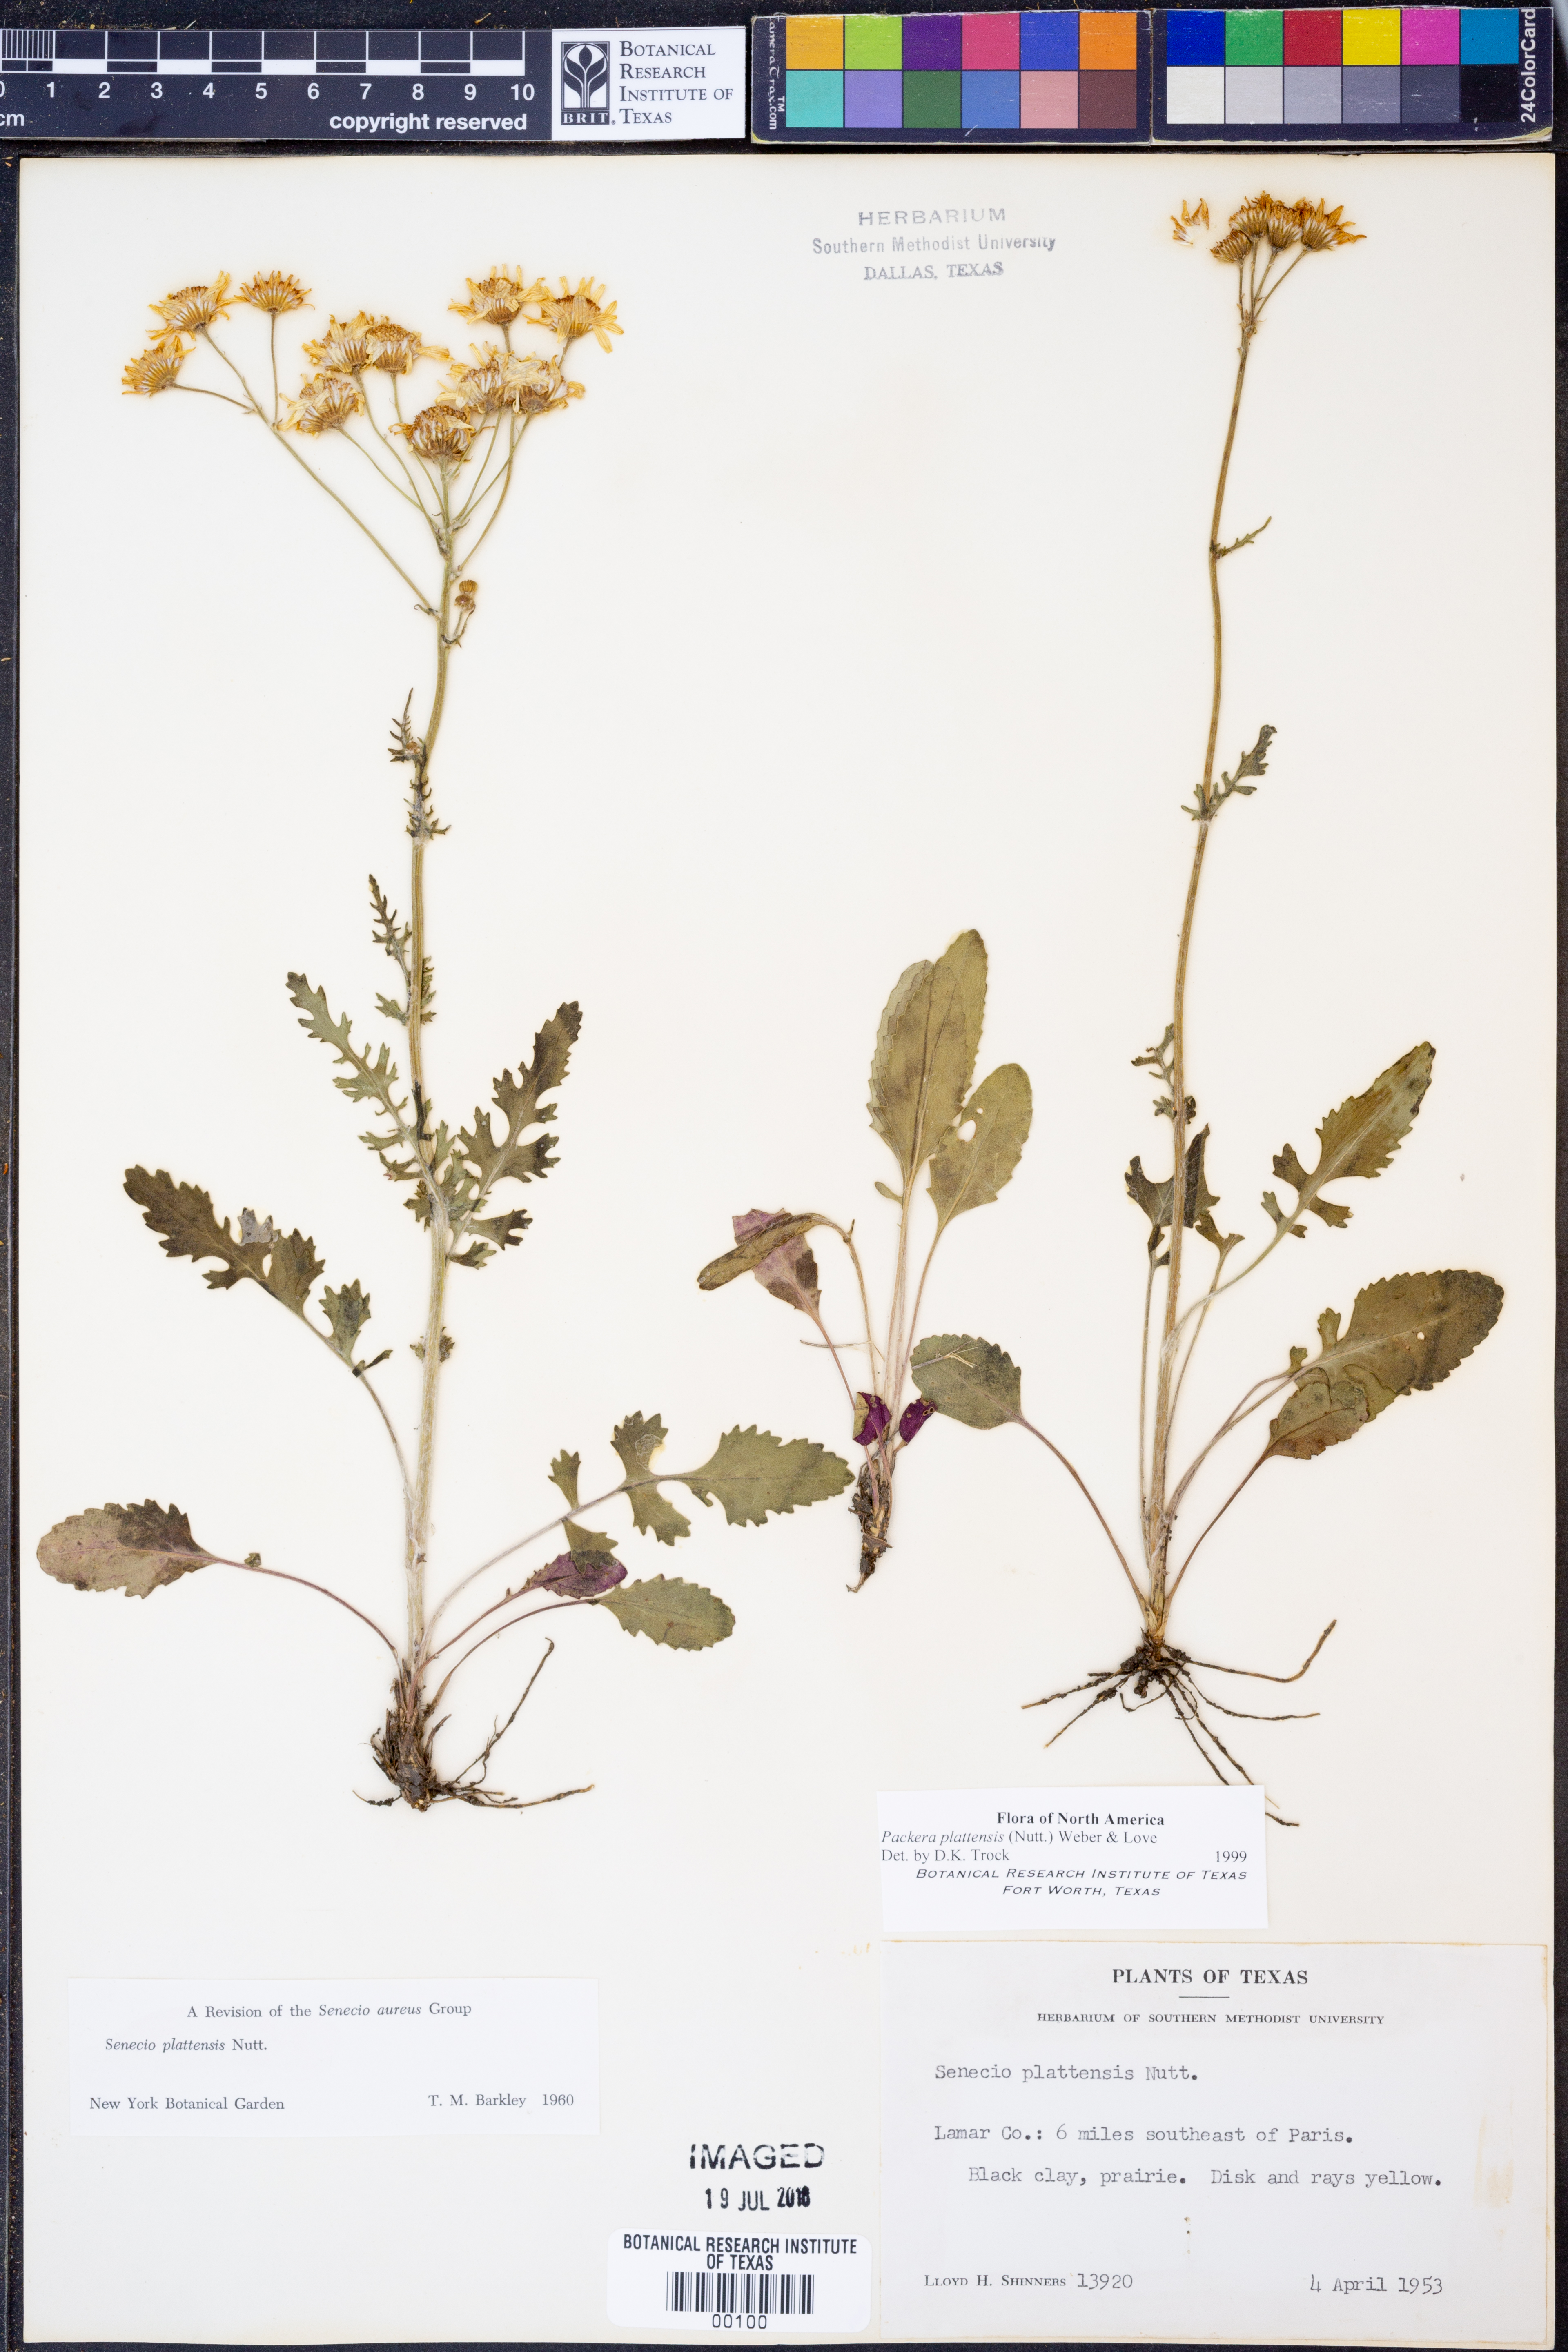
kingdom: Plantae
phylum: Tracheophyta
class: Magnoliopsida
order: Asterales
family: Asteraceae
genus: Packera
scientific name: Packera plattensis
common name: Prairie groundsel
